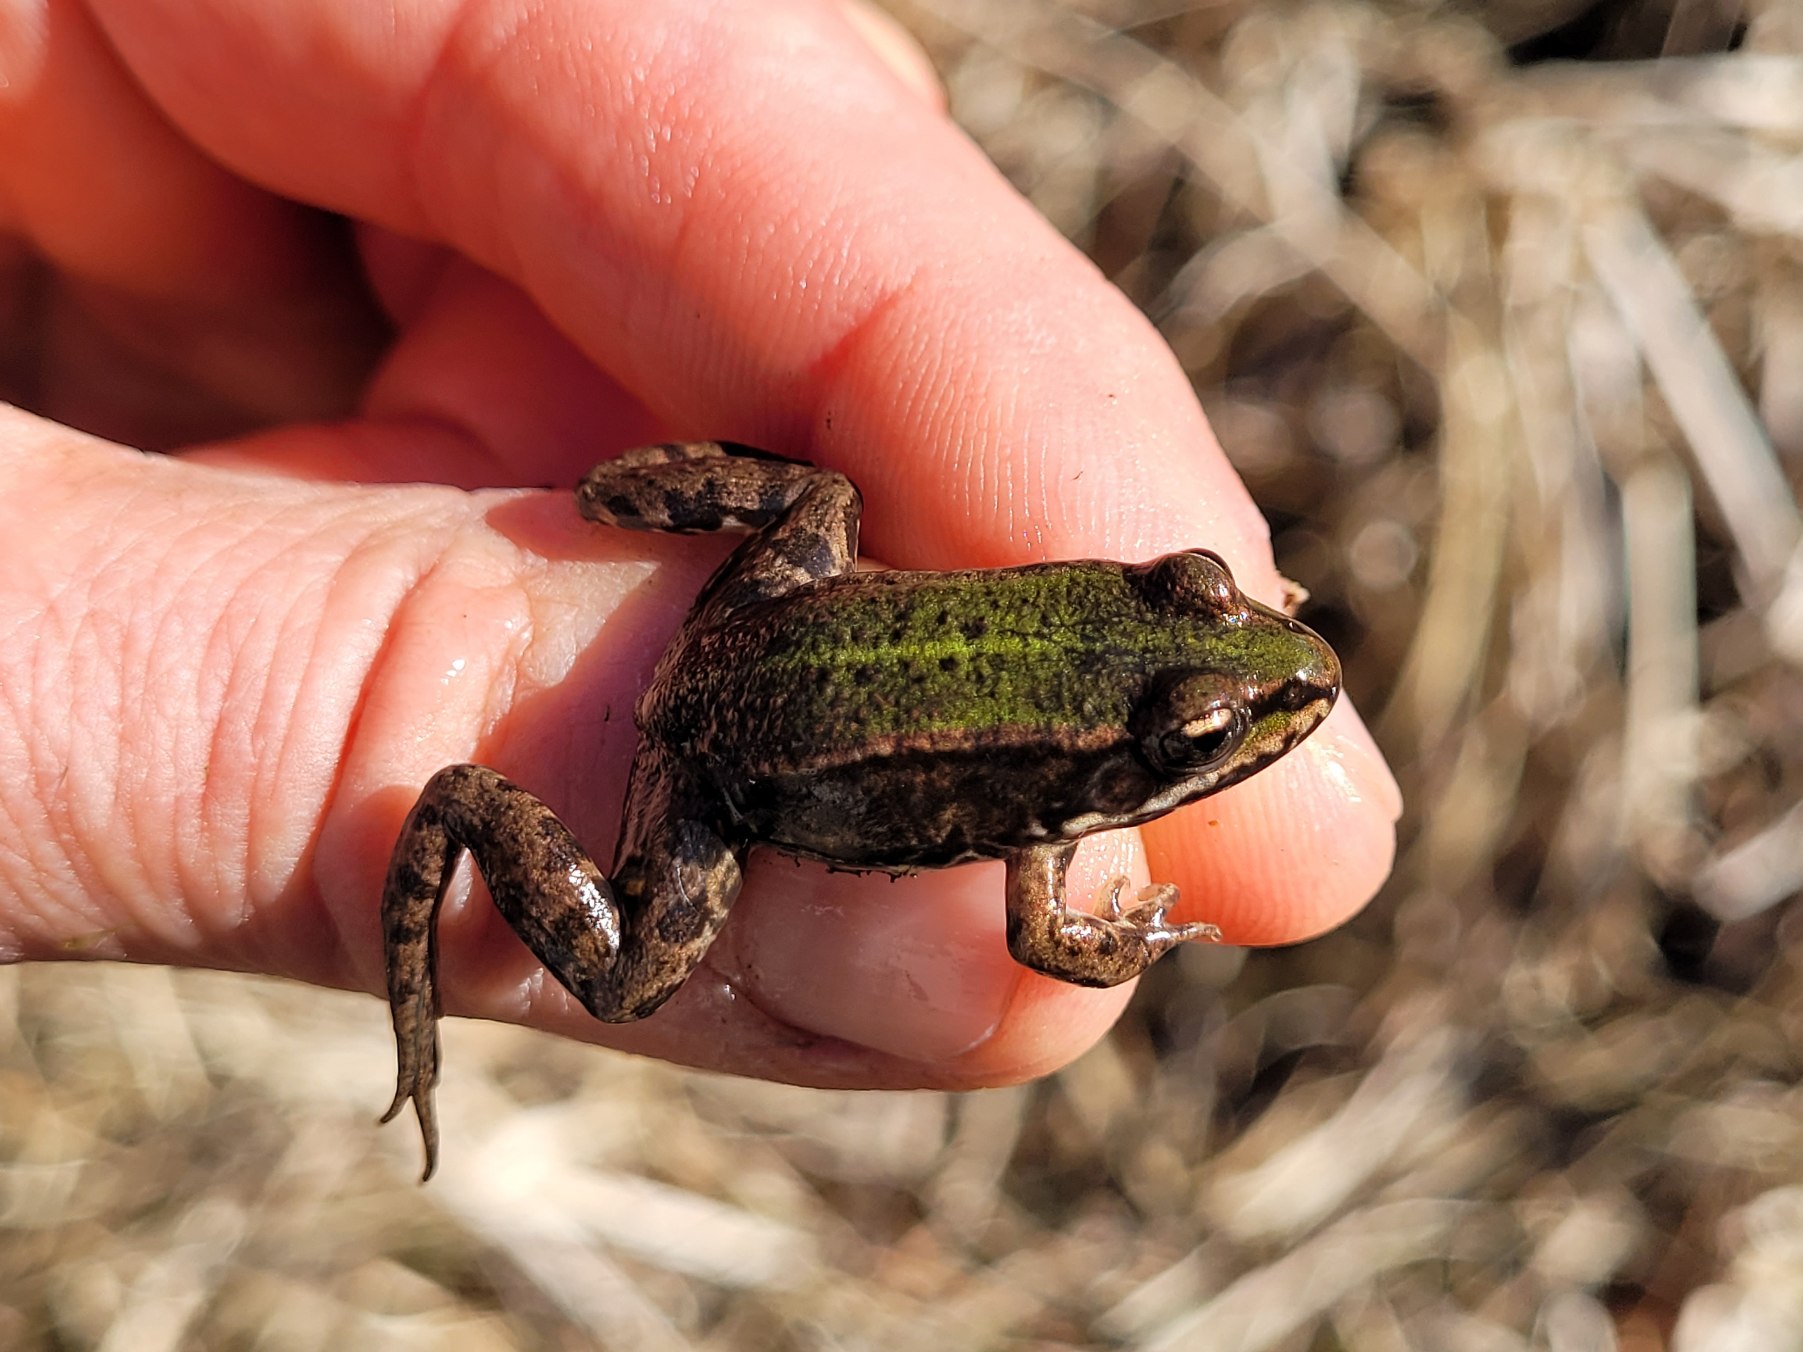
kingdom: Animalia
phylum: Chordata
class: Amphibia
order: Anura
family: Ranidae
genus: Pelophylax
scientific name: Pelophylax lessonae
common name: Grøn frø
